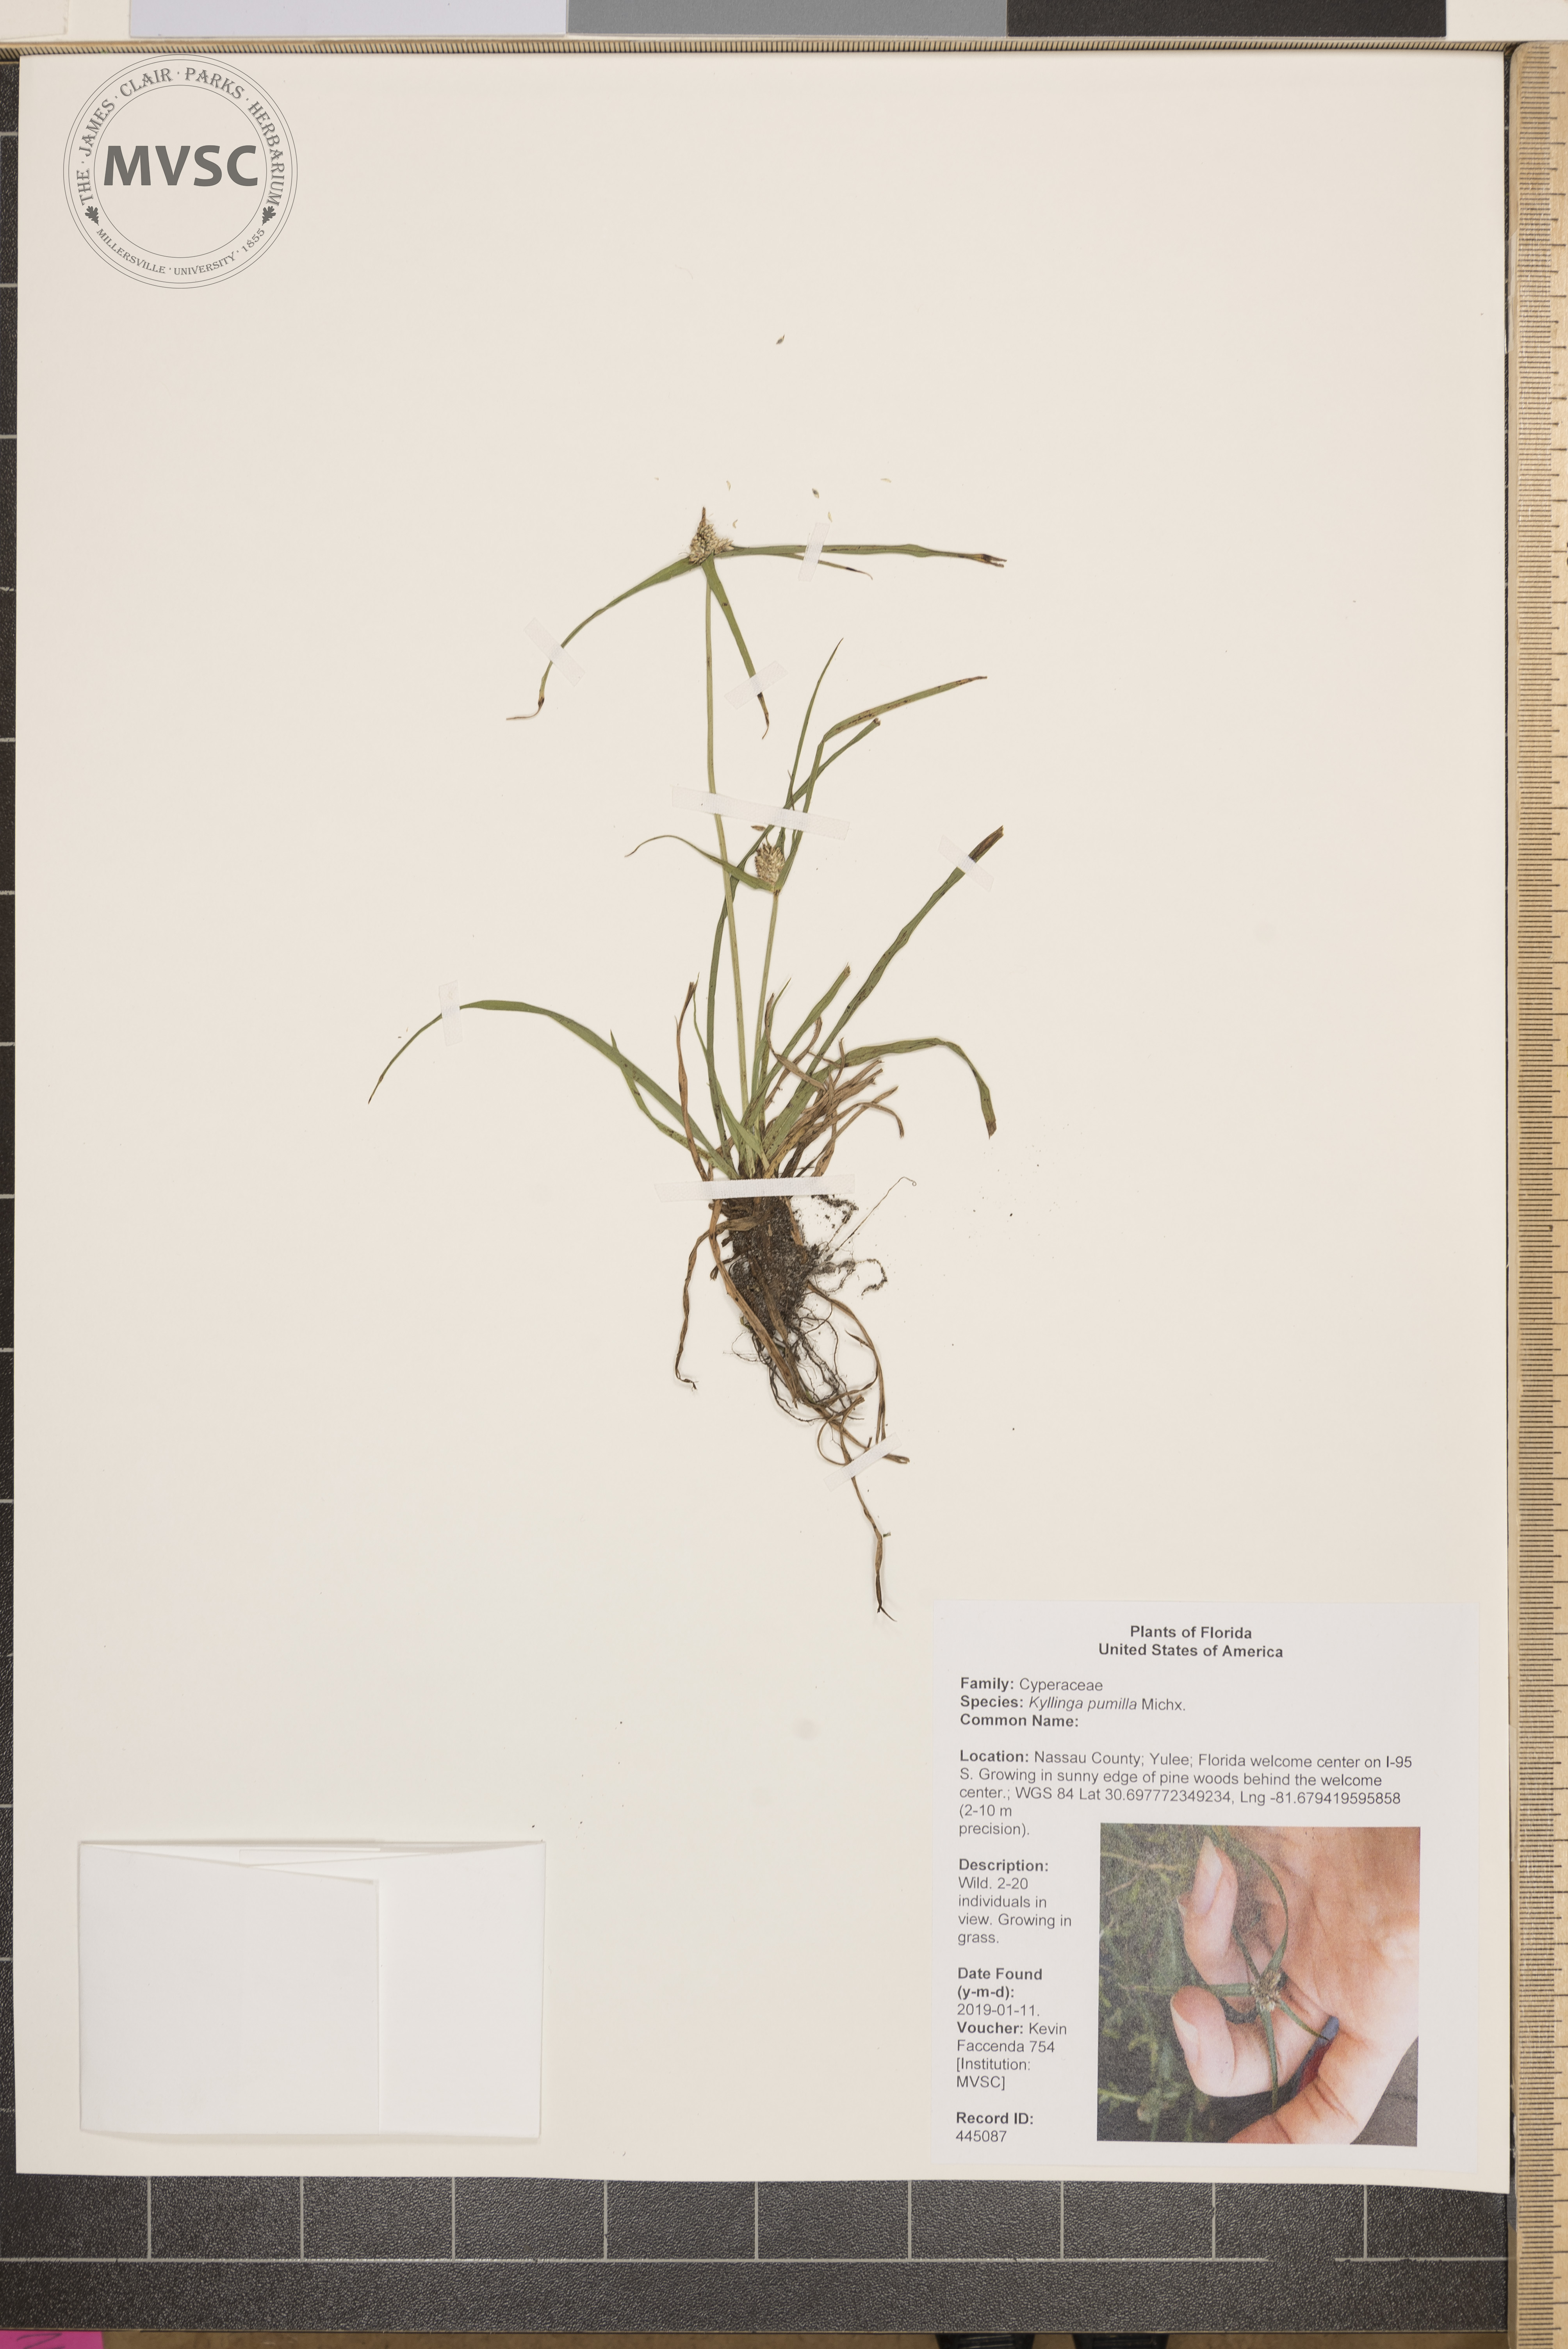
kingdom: Plantae
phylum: Tracheophyta
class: Liliopsida
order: Poales
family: Cyperaceae
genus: Cyperus
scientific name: Cyperus hortensis
